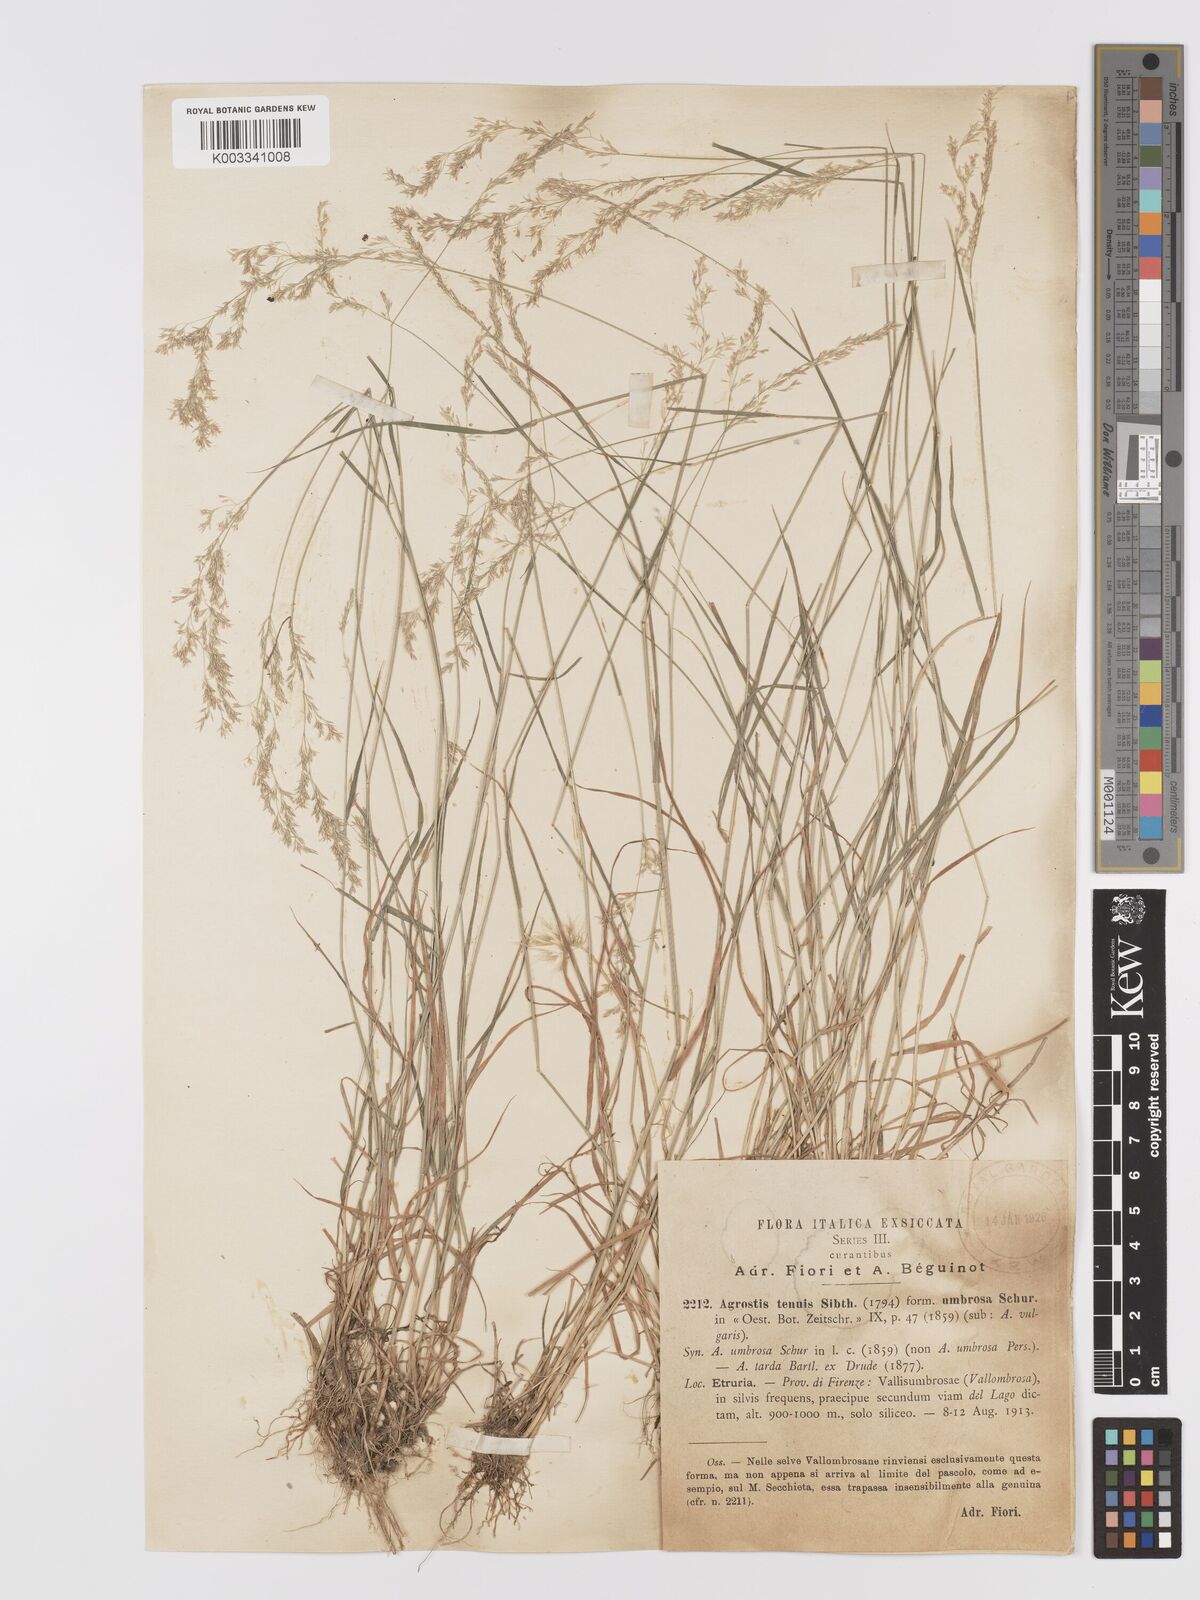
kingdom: Plantae
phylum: Tracheophyta
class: Liliopsida
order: Poales
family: Poaceae
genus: Agrostis
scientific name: Agrostis capillaris
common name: Colonial bentgrass
